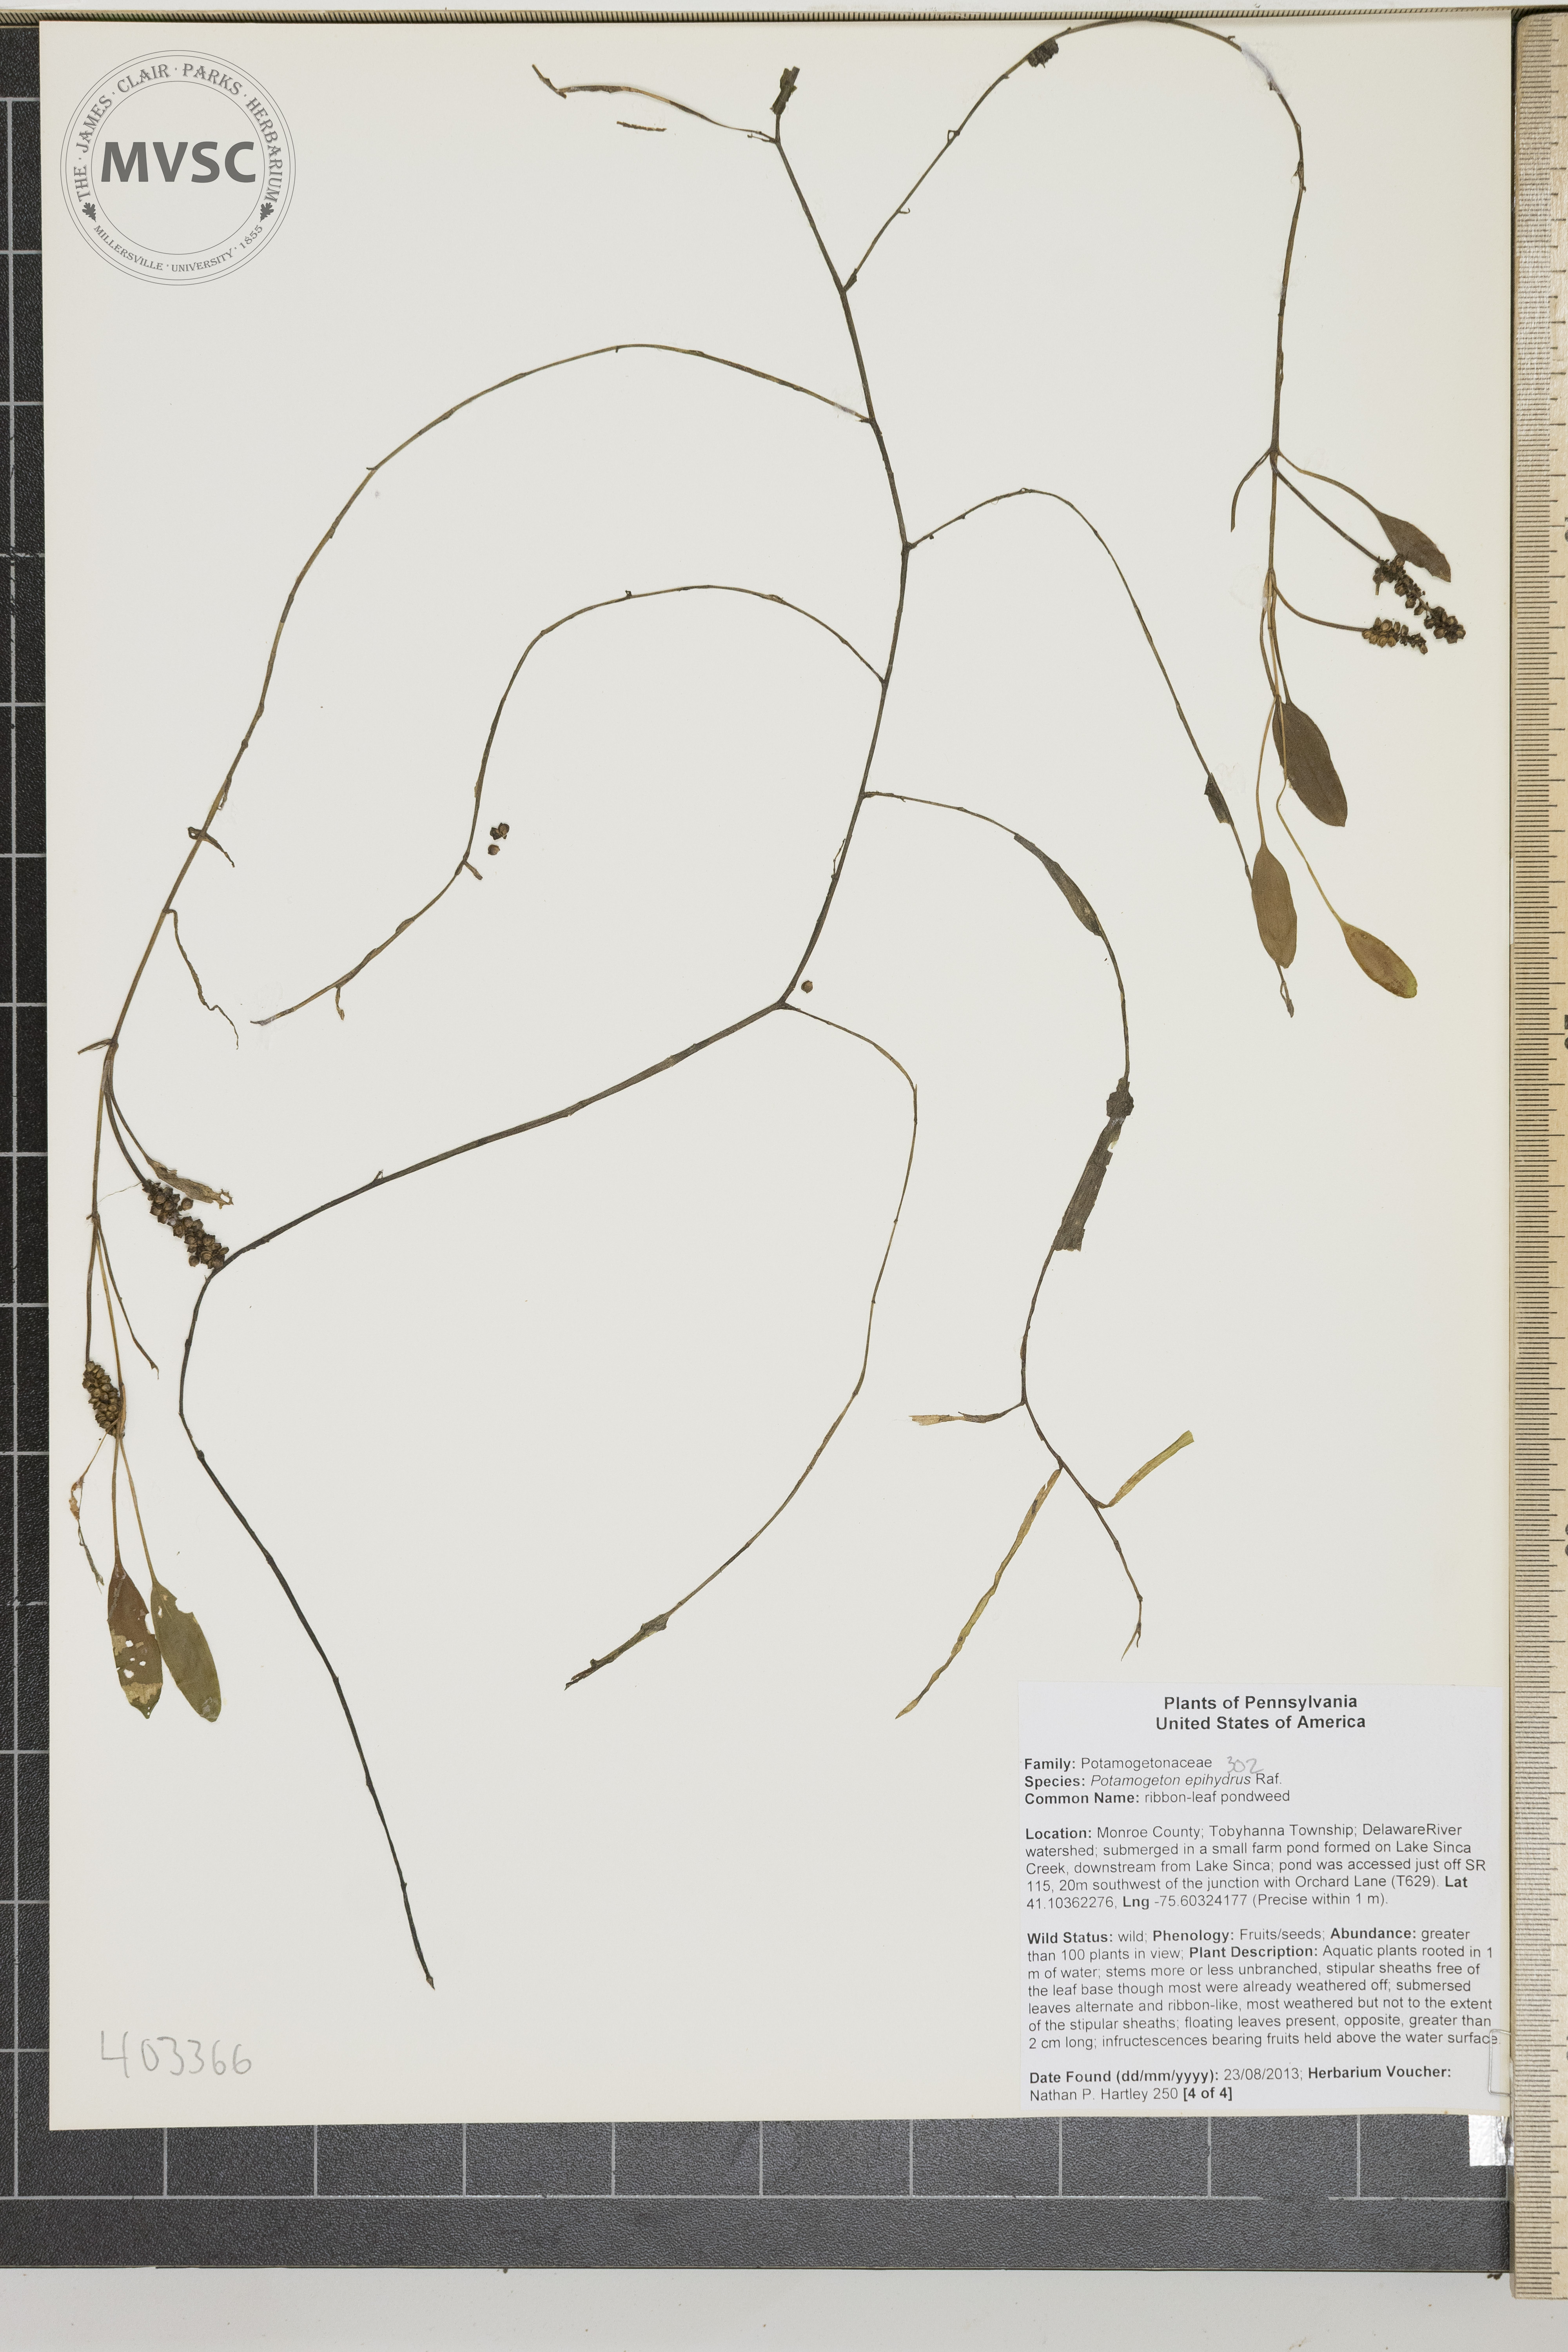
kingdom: Plantae
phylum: Tracheophyta
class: Liliopsida
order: Alismatales
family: Potamogetonaceae
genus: Potamogeton
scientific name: Potamogeton epihydrus
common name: American pondweed
